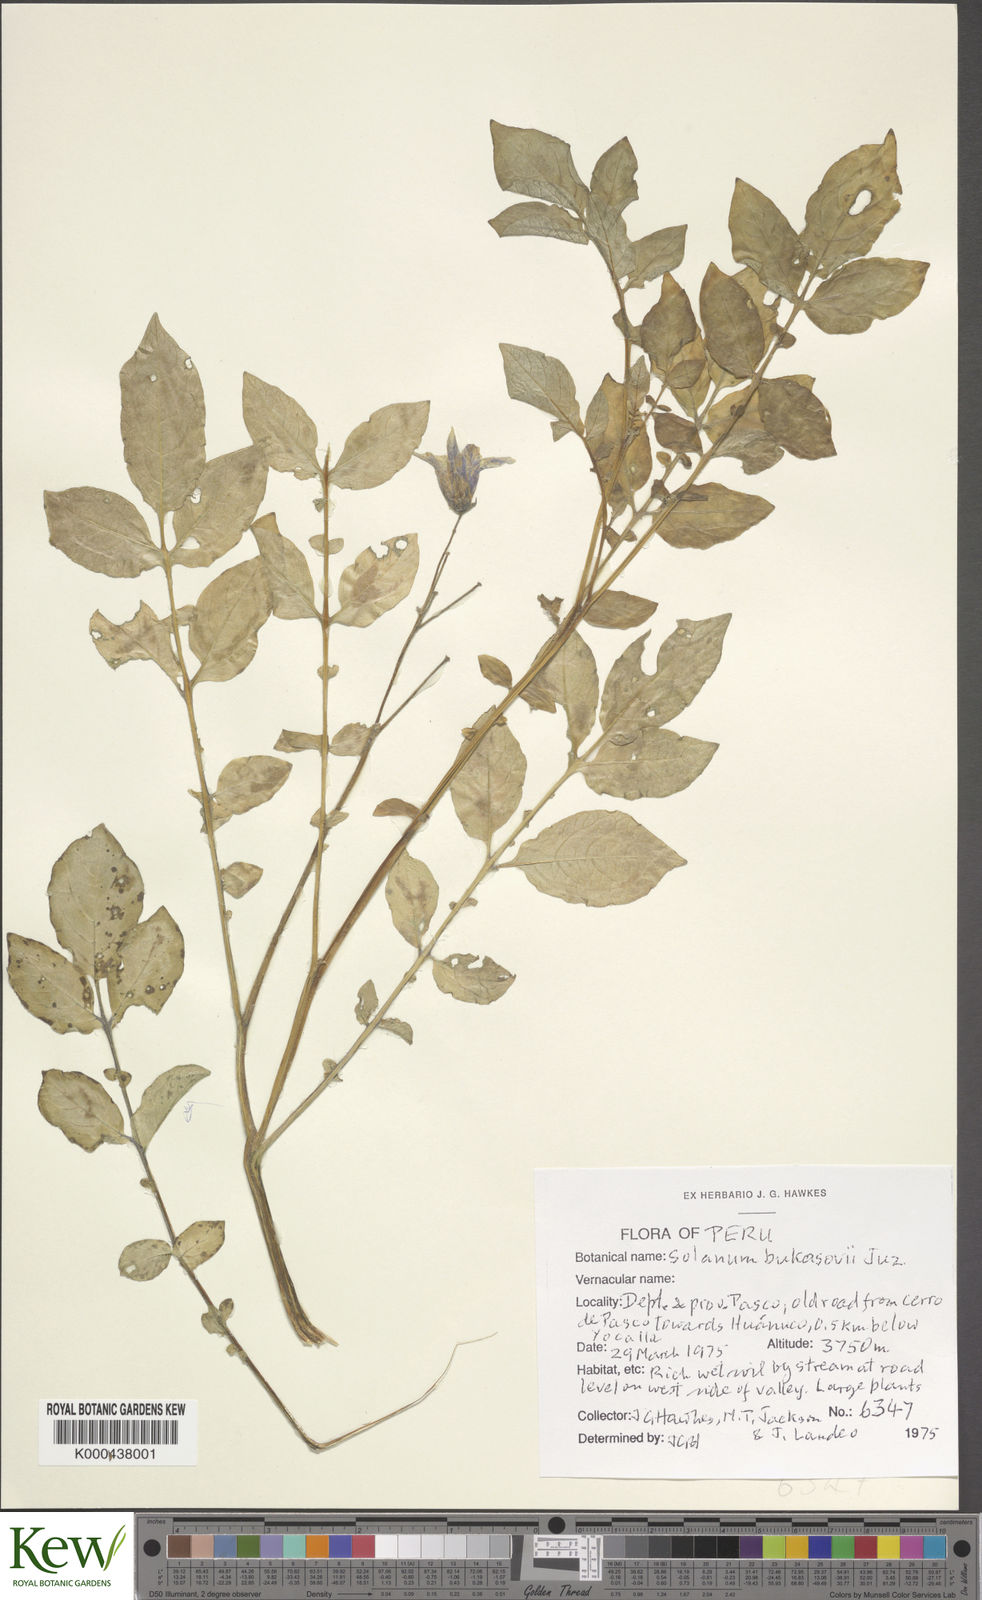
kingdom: Plantae
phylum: Tracheophyta
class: Magnoliopsida
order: Solanales
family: Solanaceae
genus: Solanum
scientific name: Solanum candolleanum
